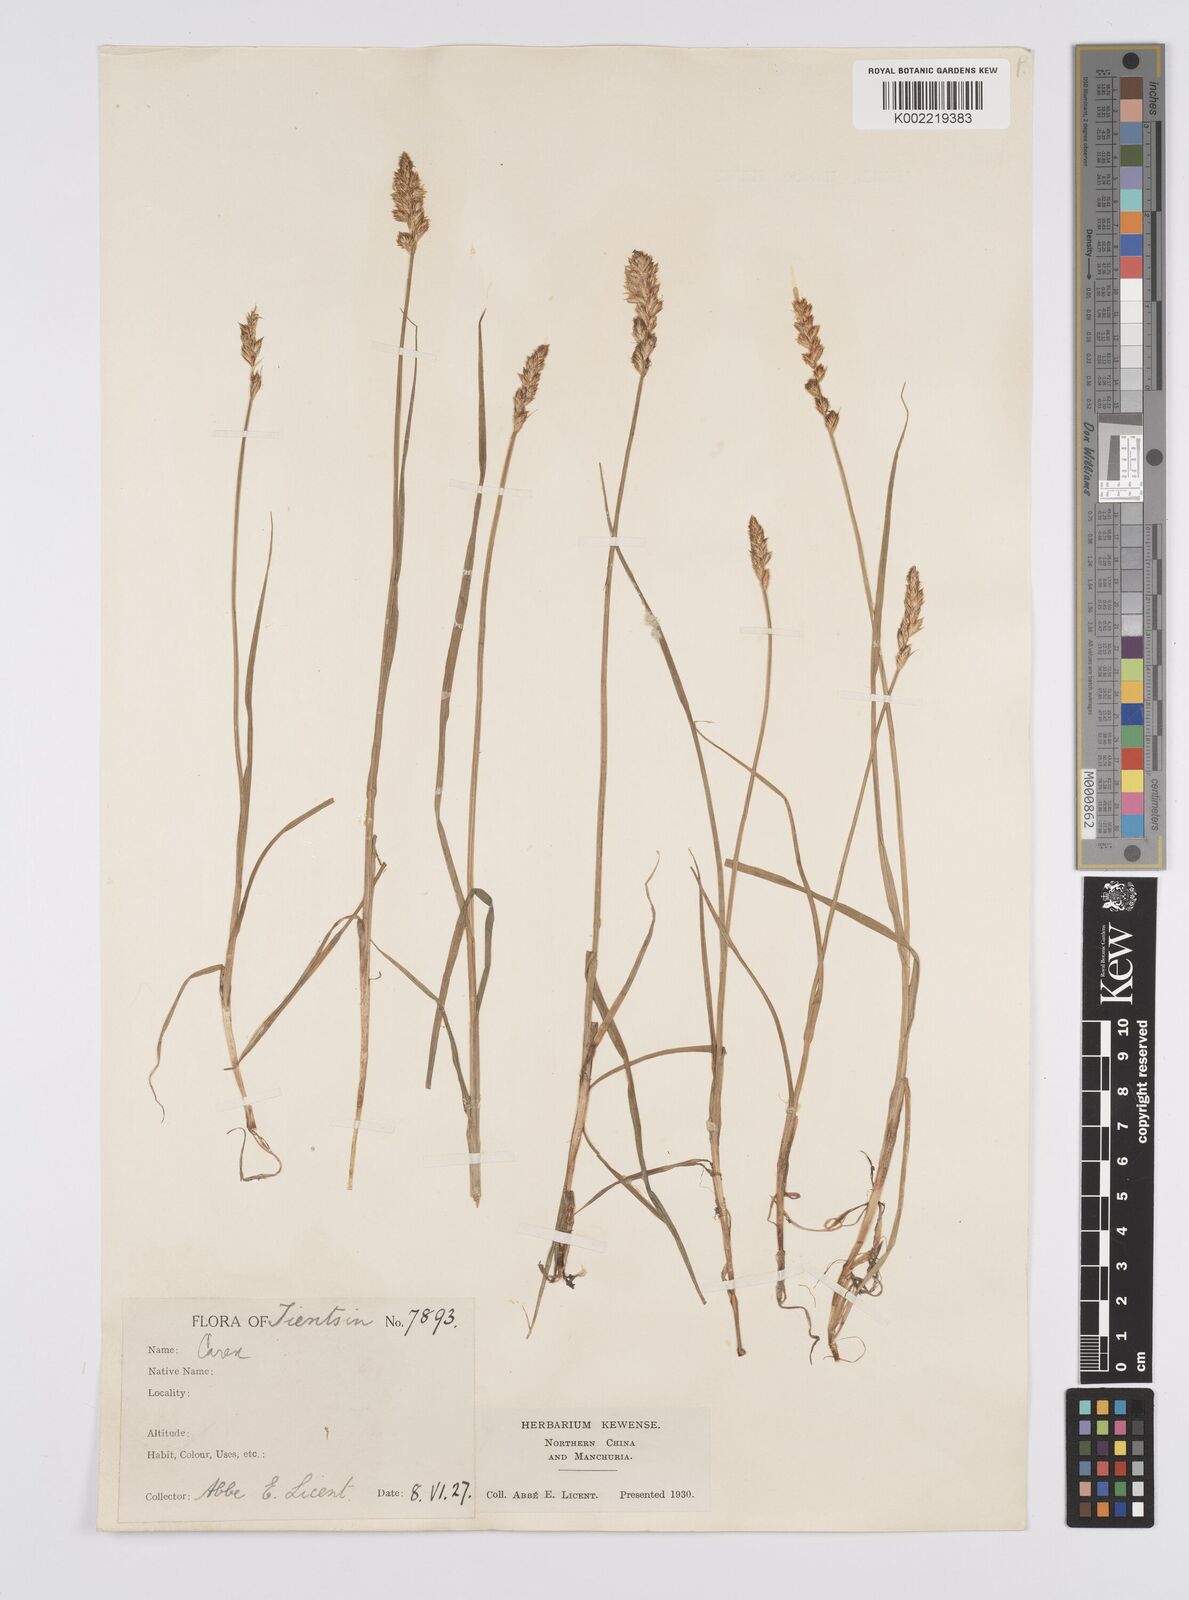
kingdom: Plantae
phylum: Tracheophyta
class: Liliopsida
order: Poales
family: Cyperaceae
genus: Carex
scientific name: Carex arenicola
